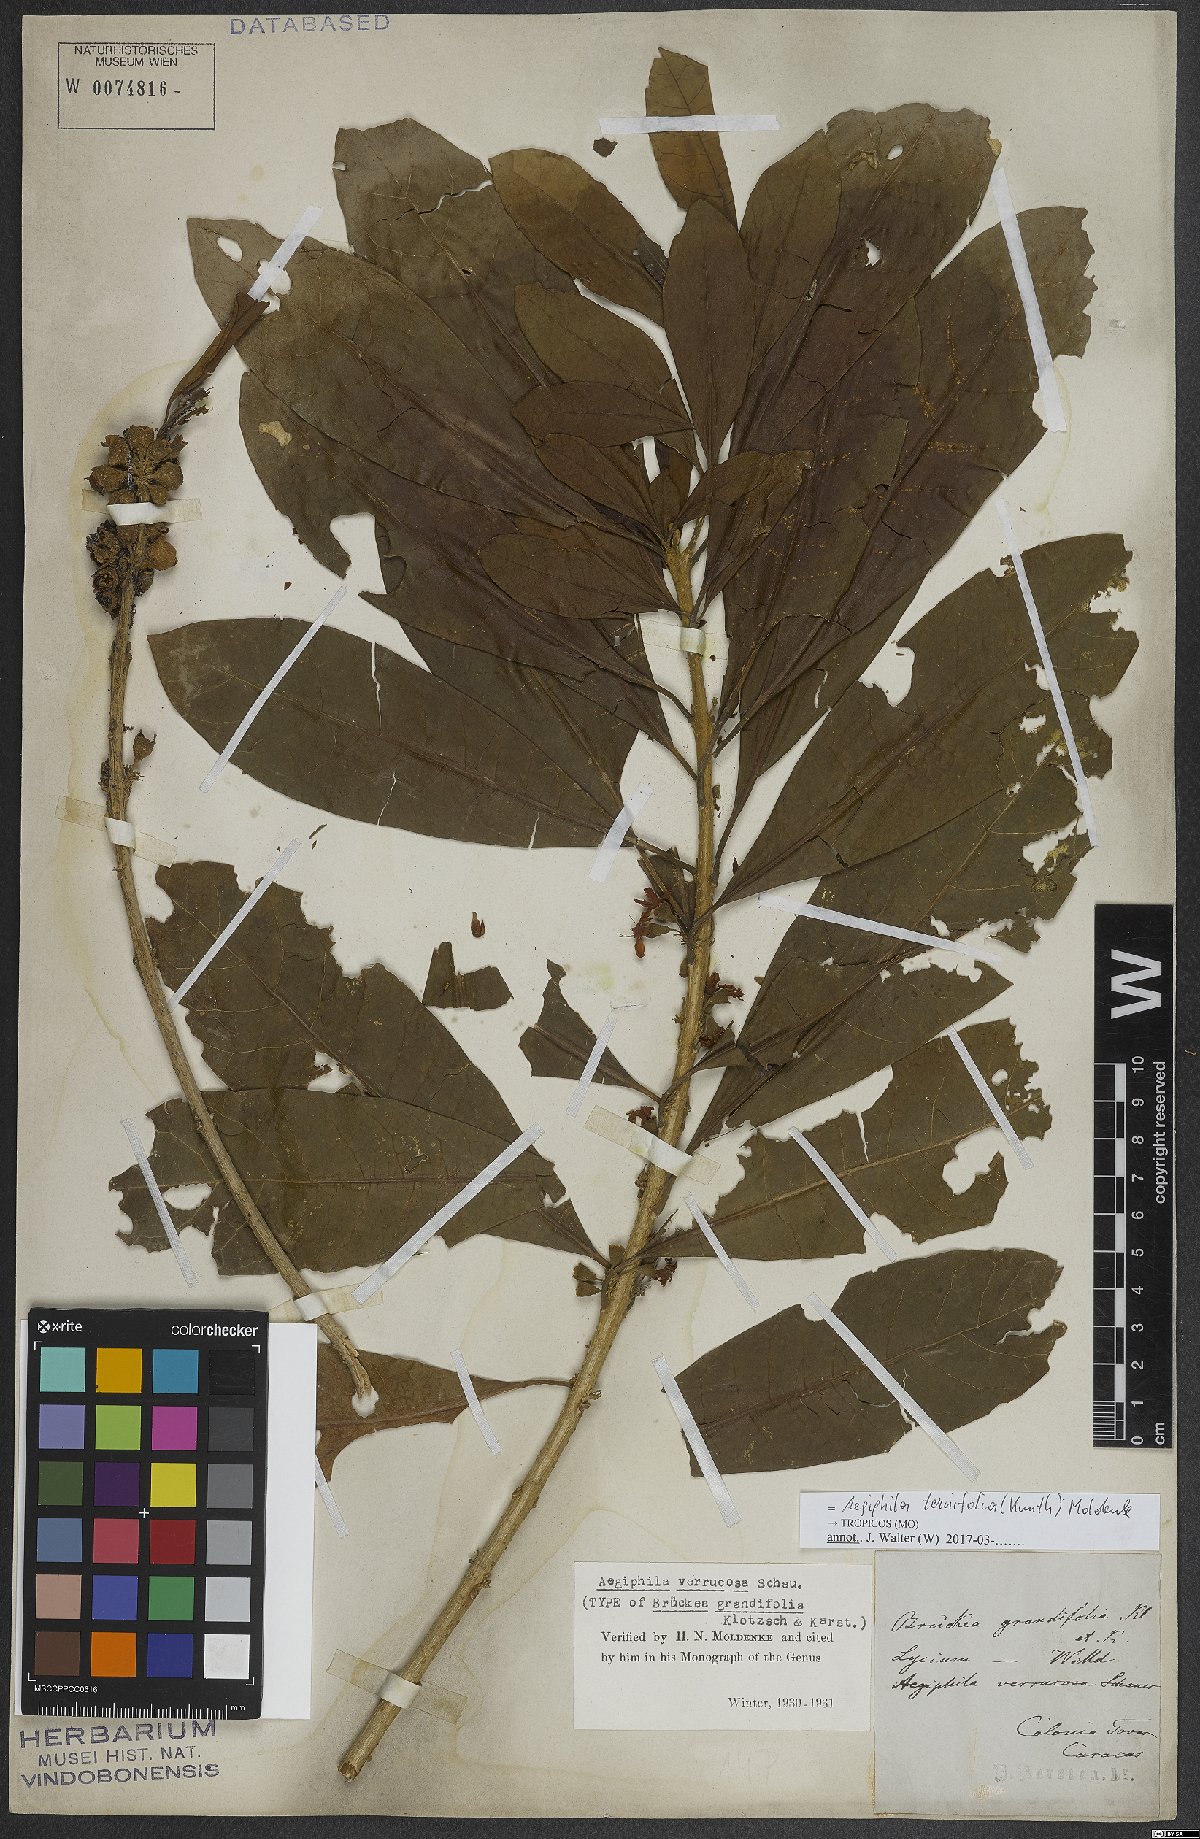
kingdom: Plantae
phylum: Tracheophyta
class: Magnoliopsida
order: Lamiales
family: Lamiaceae
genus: Aegiphila
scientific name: Aegiphila ternifolia
